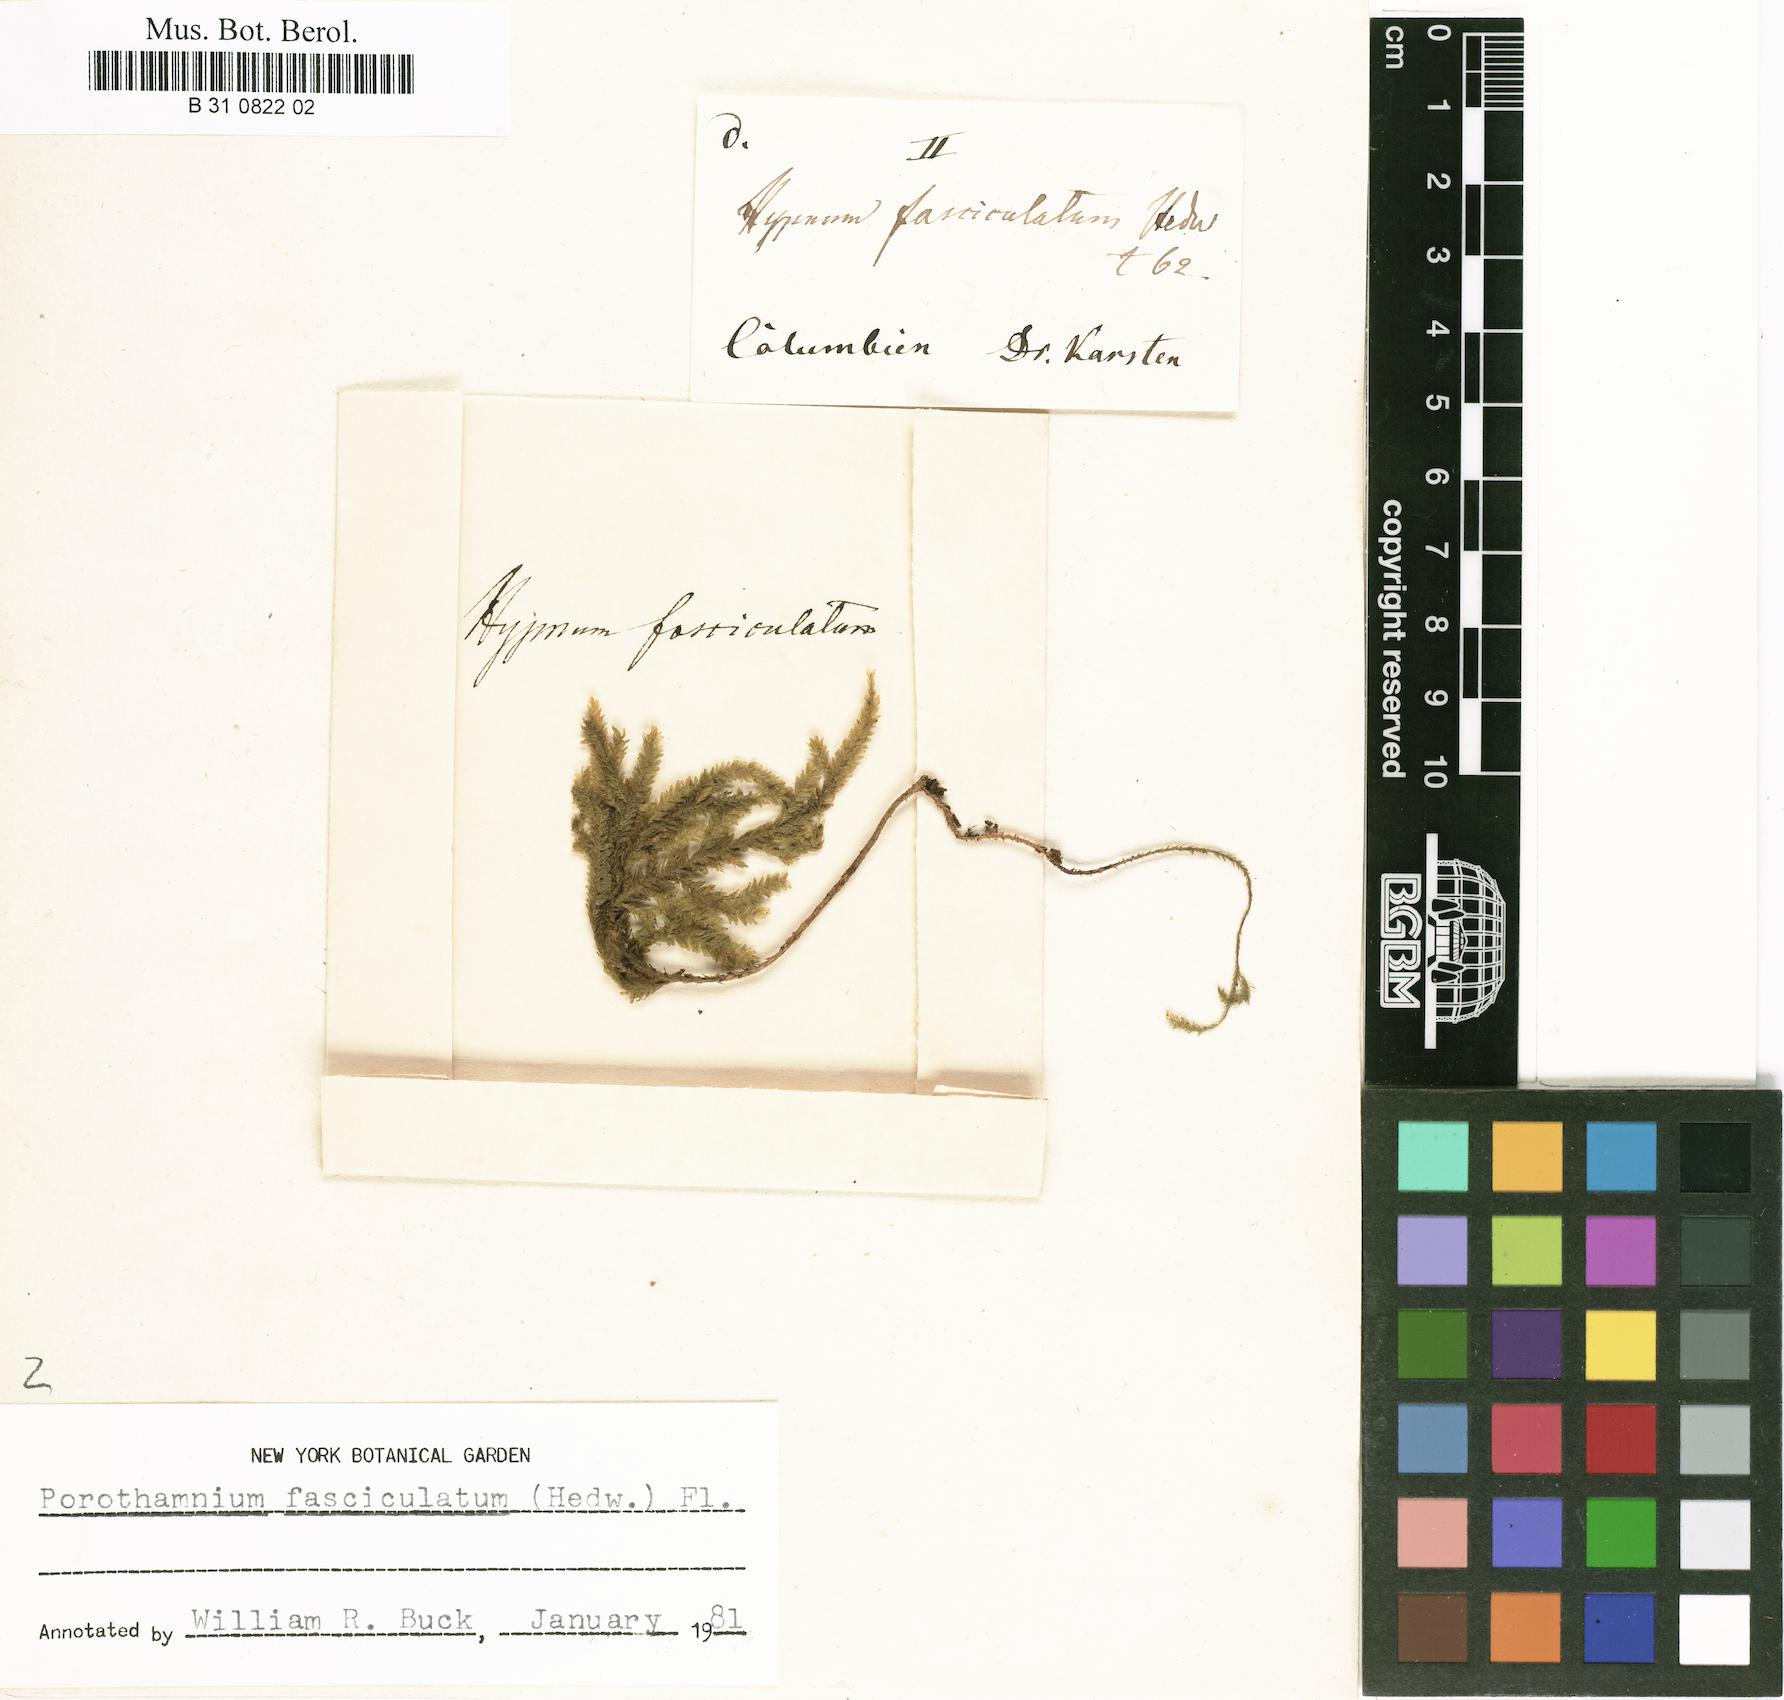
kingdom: Plantae
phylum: Bryophyta
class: Bryopsida
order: Hypnales
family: Neckeraceae
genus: Thamnobryum
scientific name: Thamnobryum fasciculatum
